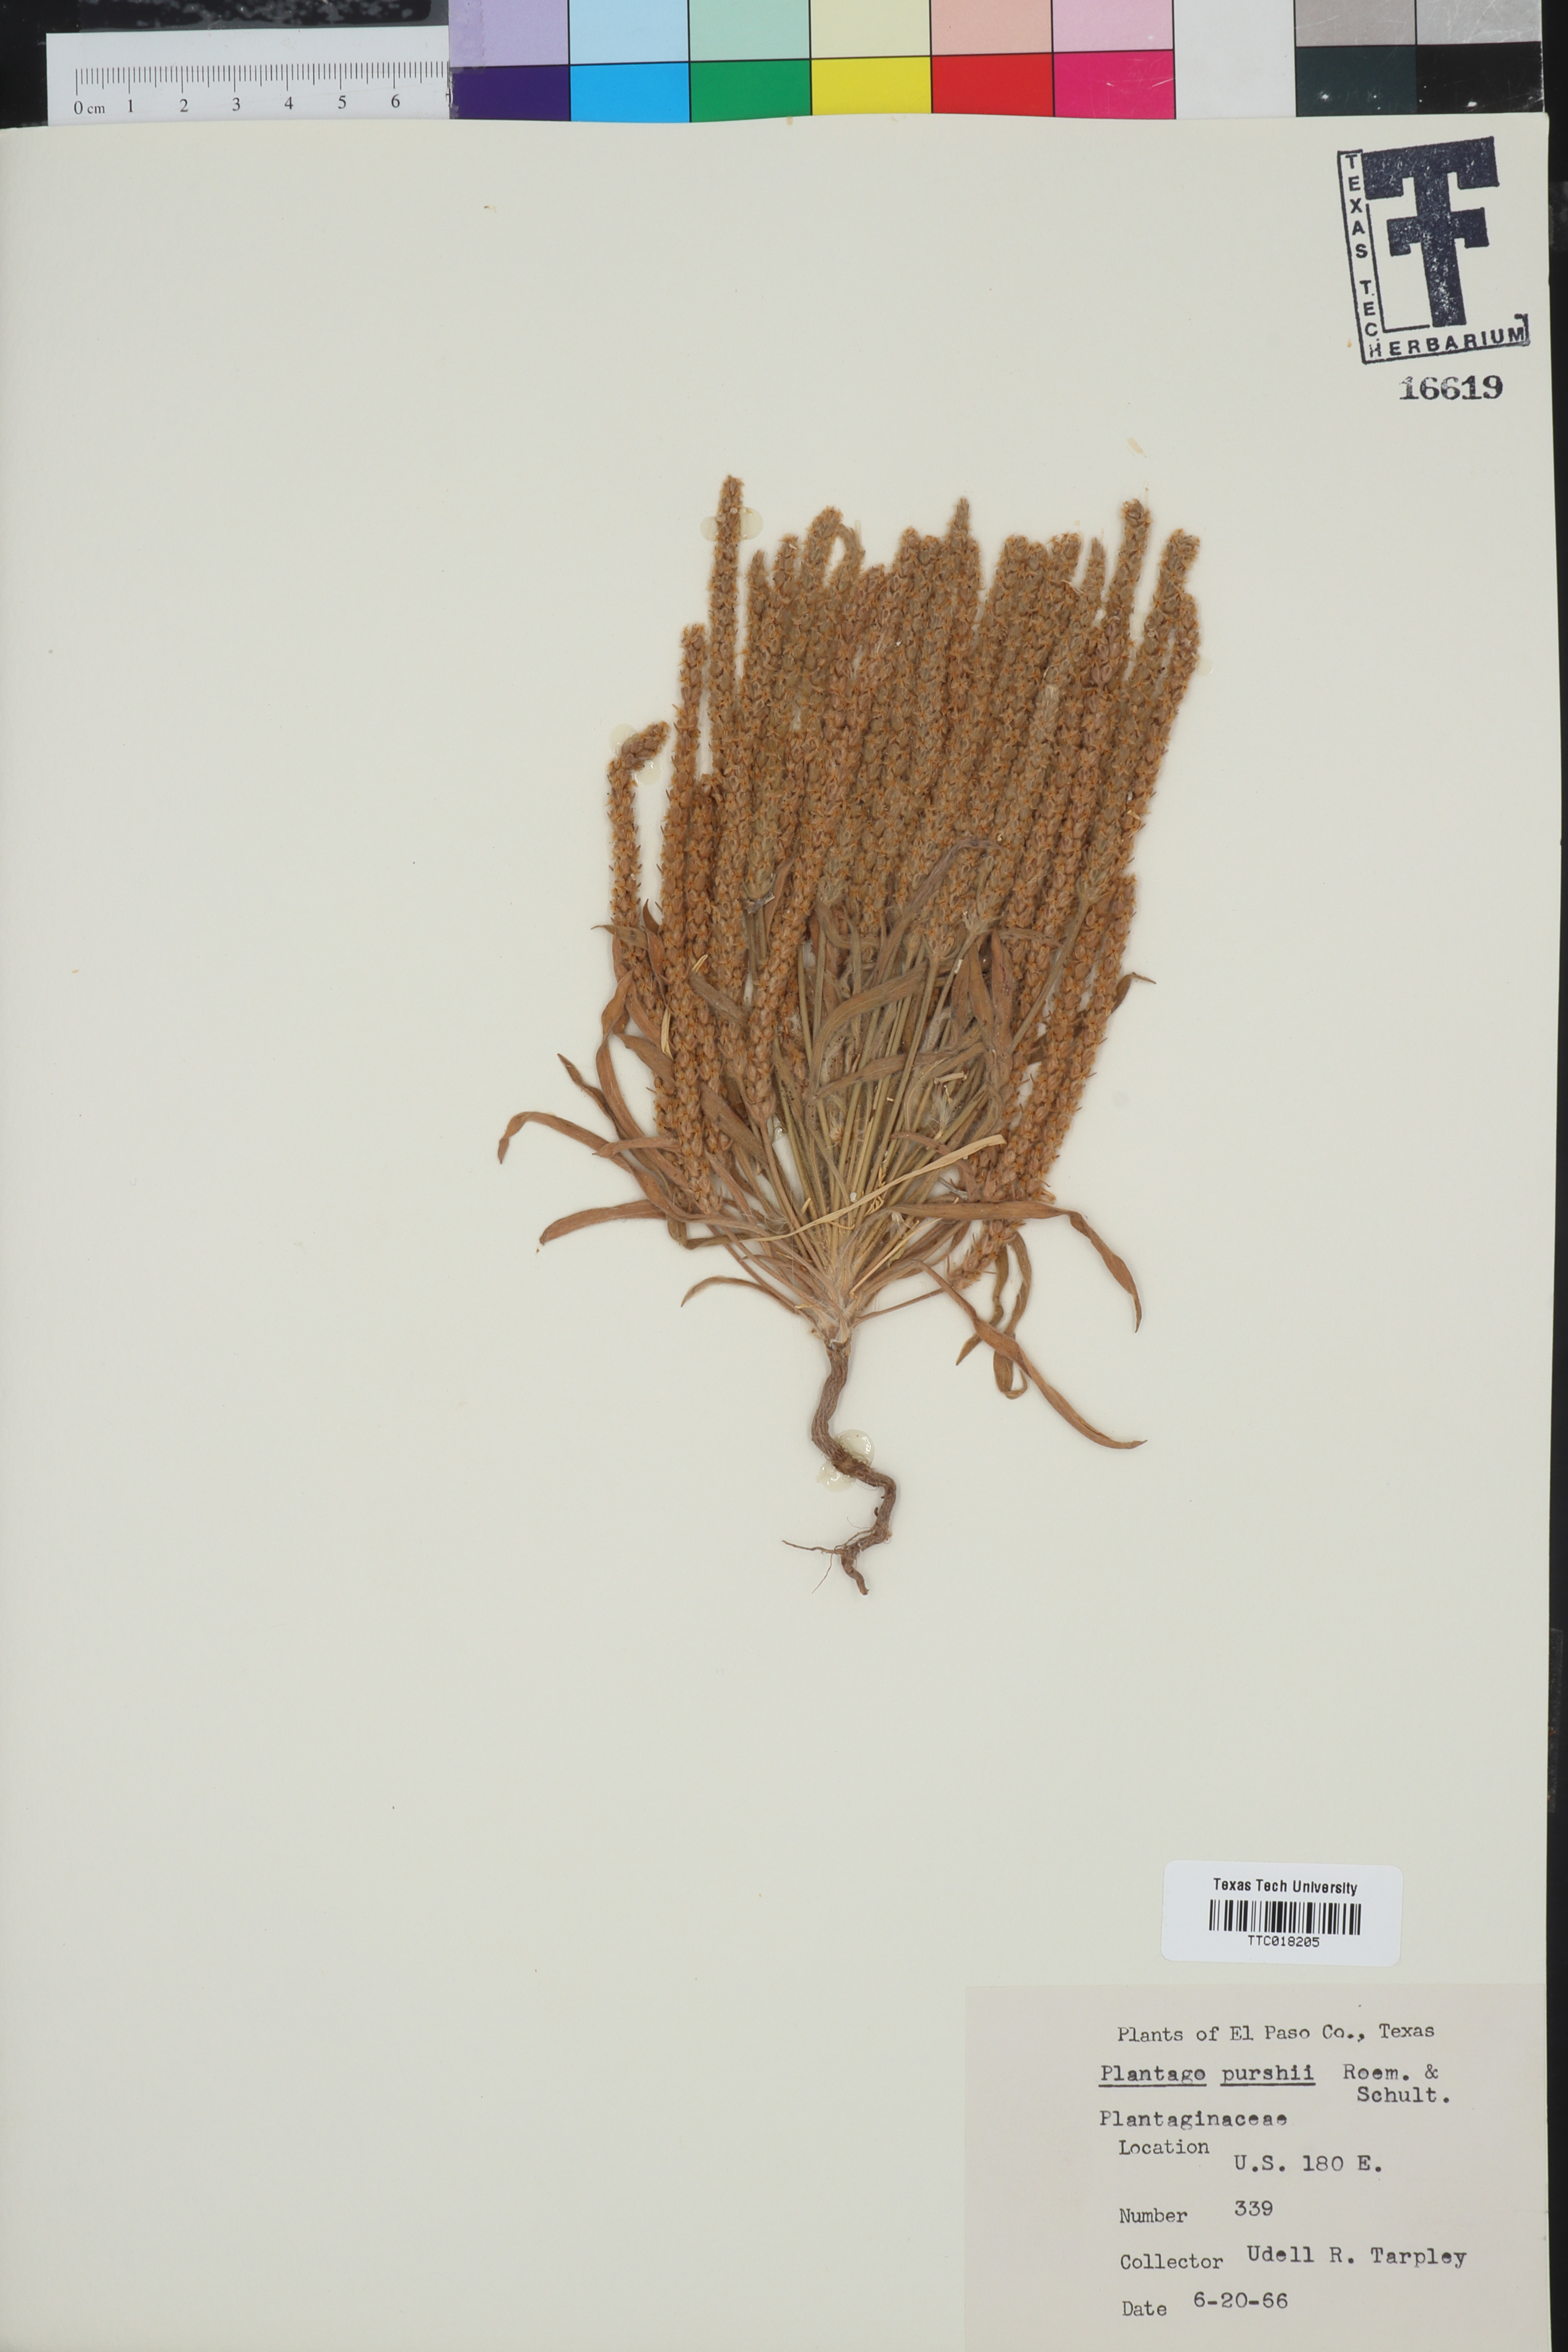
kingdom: Plantae
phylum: Tracheophyta
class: Magnoliopsida
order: Lamiales
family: Plantaginaceae
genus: Plantago
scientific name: Plantago patagonica
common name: Patagonia indian-wheat
